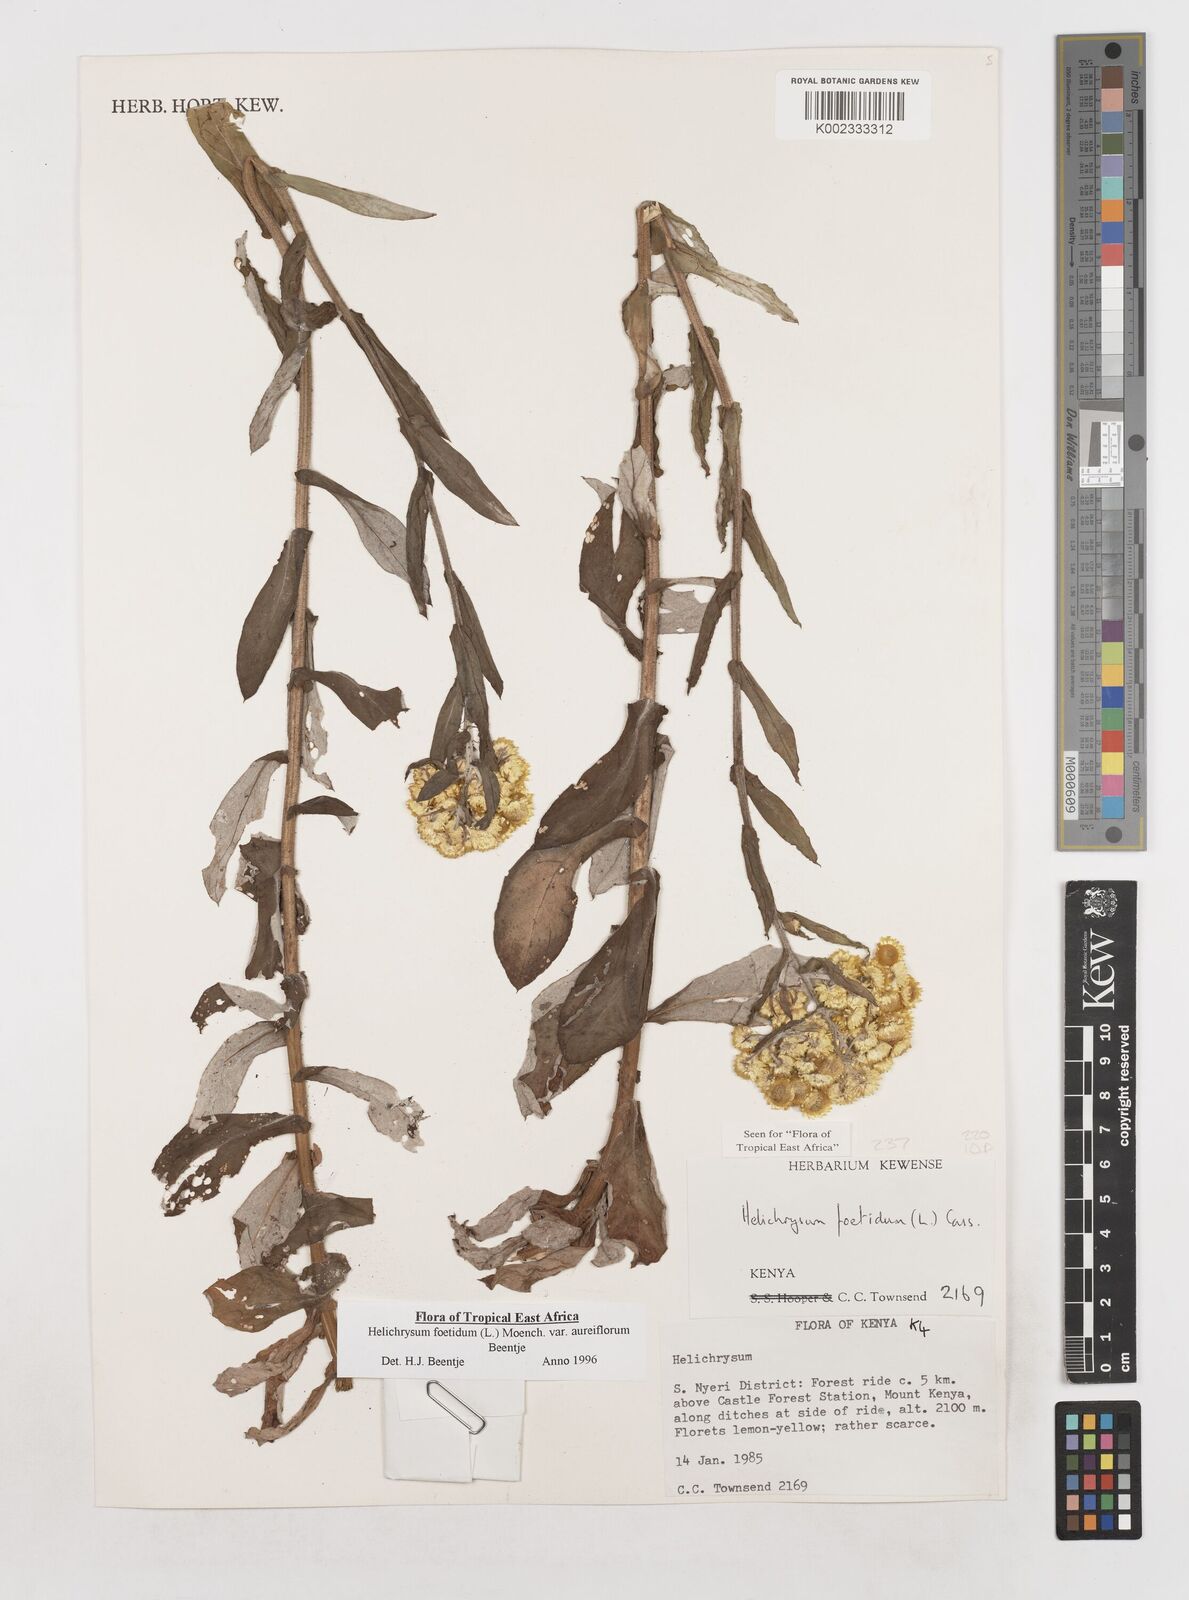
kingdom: Plantae
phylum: Tracheophyta
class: Magnoliopsida
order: Asterales
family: Asteraceae
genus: Helichrysum
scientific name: Helichrysum foetidum
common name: Stinking everlasting
